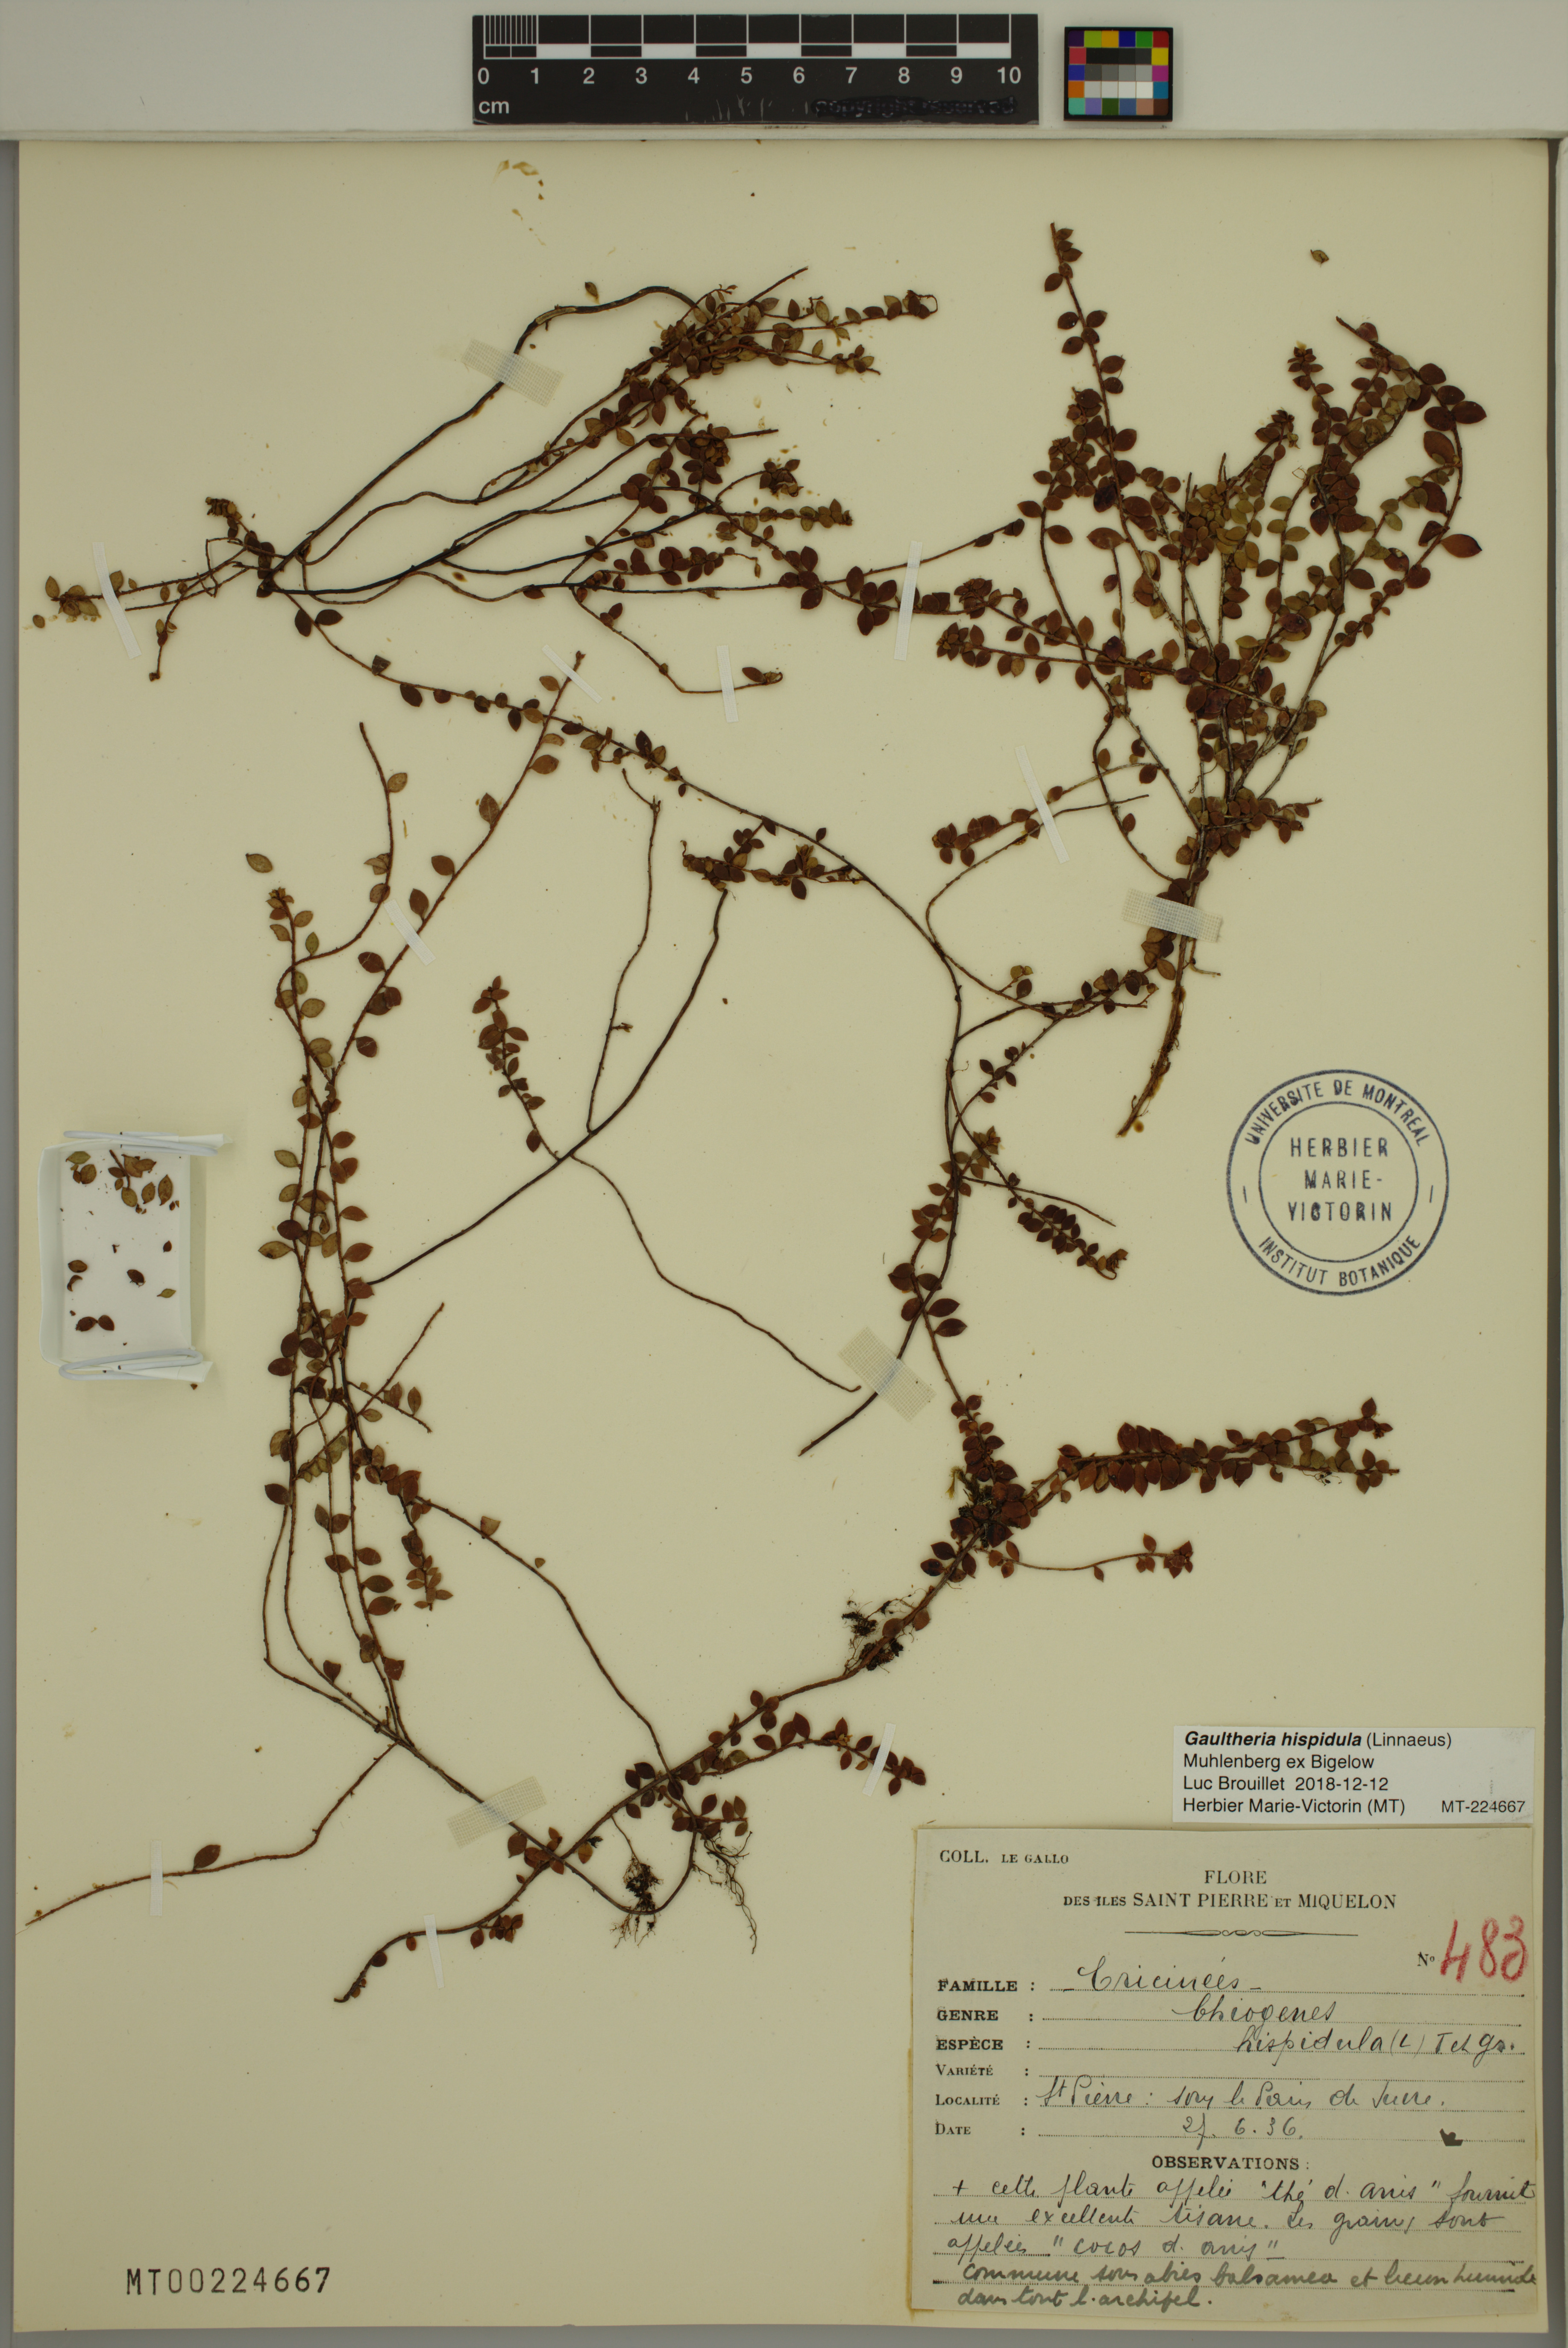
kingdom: Plantae
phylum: Tracheophyta
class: Magnoliopsida
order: Ericales
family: Ericaceae
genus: Gaultheria
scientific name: Gaultheria hispidula
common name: Cancer wintergreen
